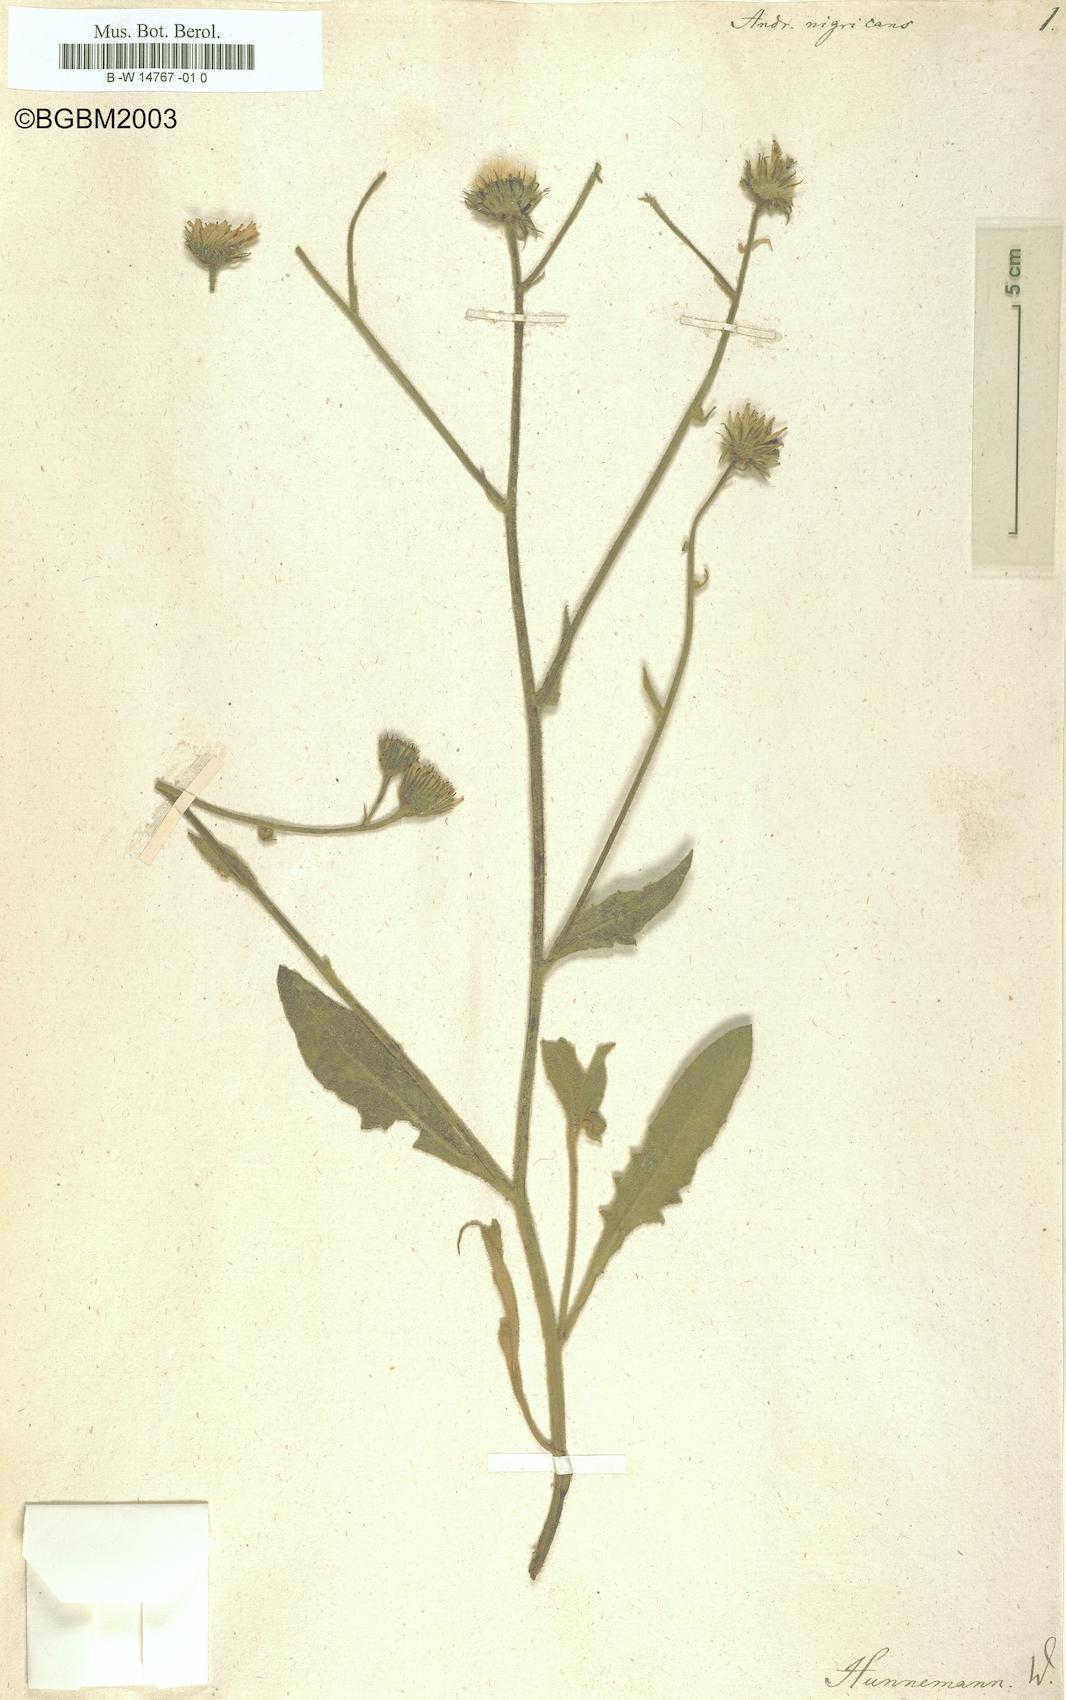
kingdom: Plantae
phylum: Tracheophyta
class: Magnoliopsida
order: Asterales
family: Asteraceae
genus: Andryala
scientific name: Andryala nigricans
